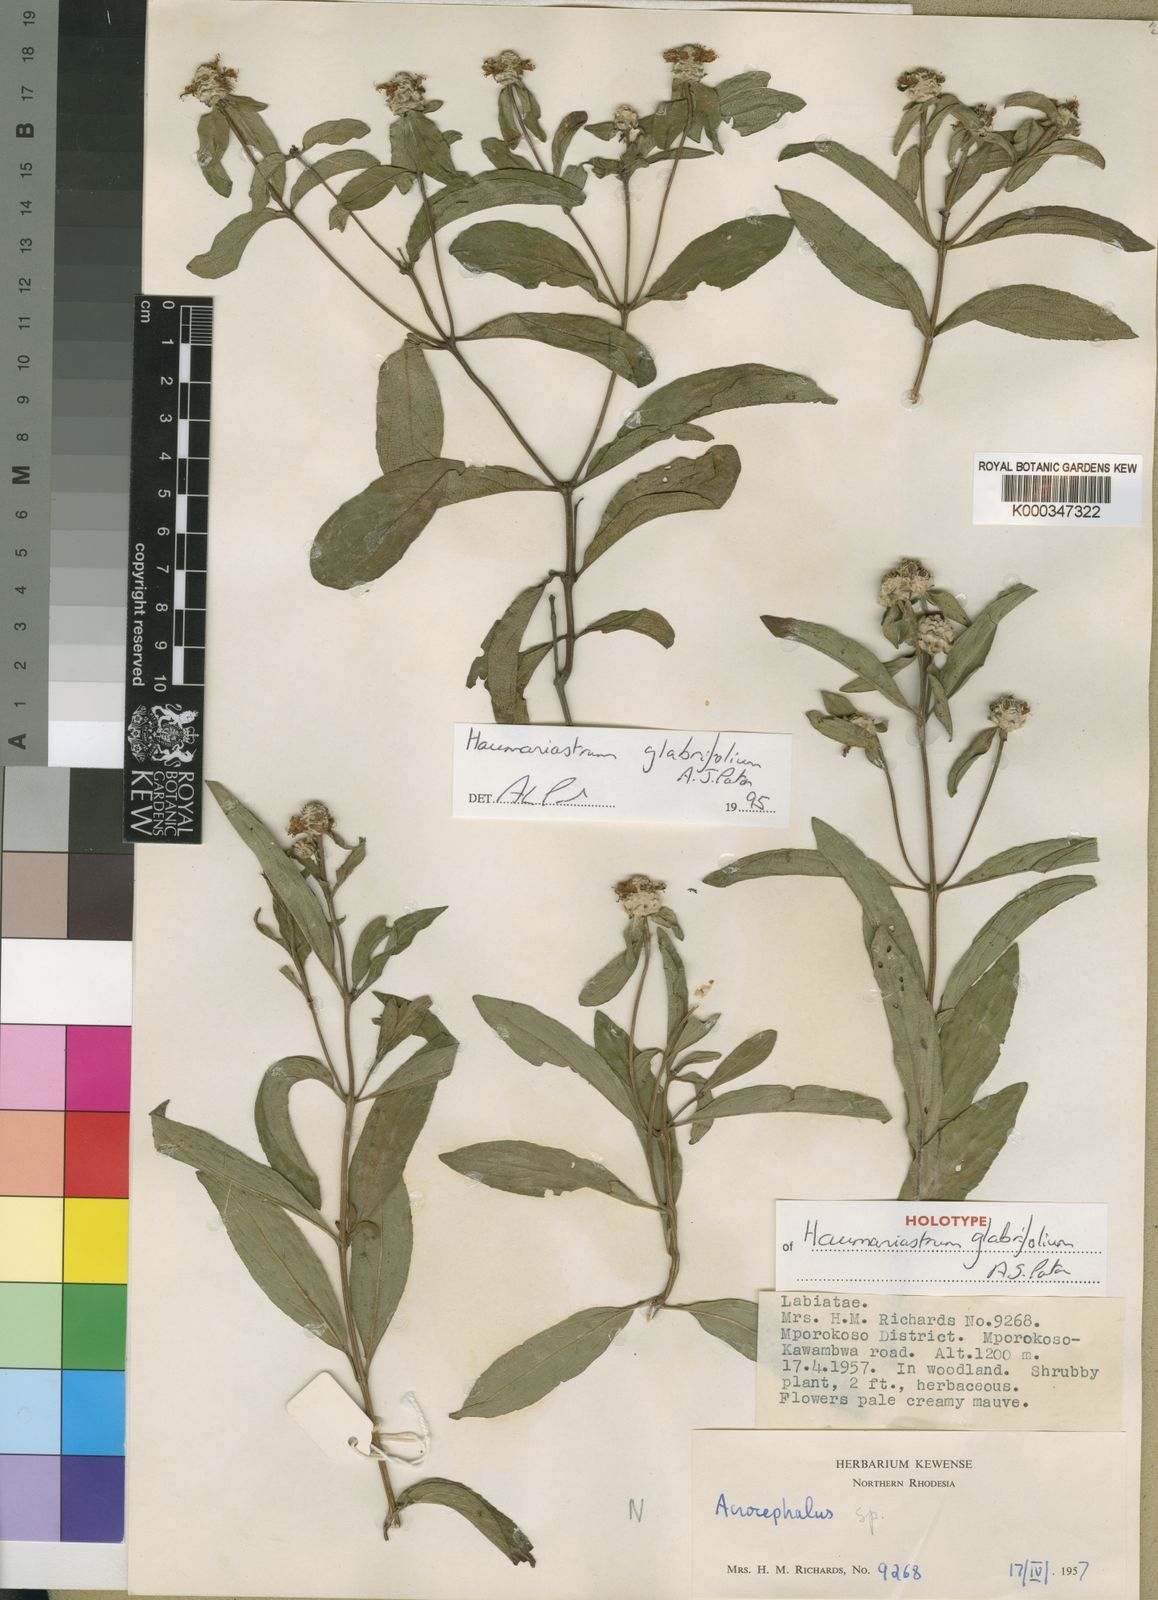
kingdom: Plantae
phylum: Tracheophyta
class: Magnoliopsida
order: Lamiales
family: Lamiaceae
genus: Haumaniastrum
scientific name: Haumaniastrum glabrifolium
